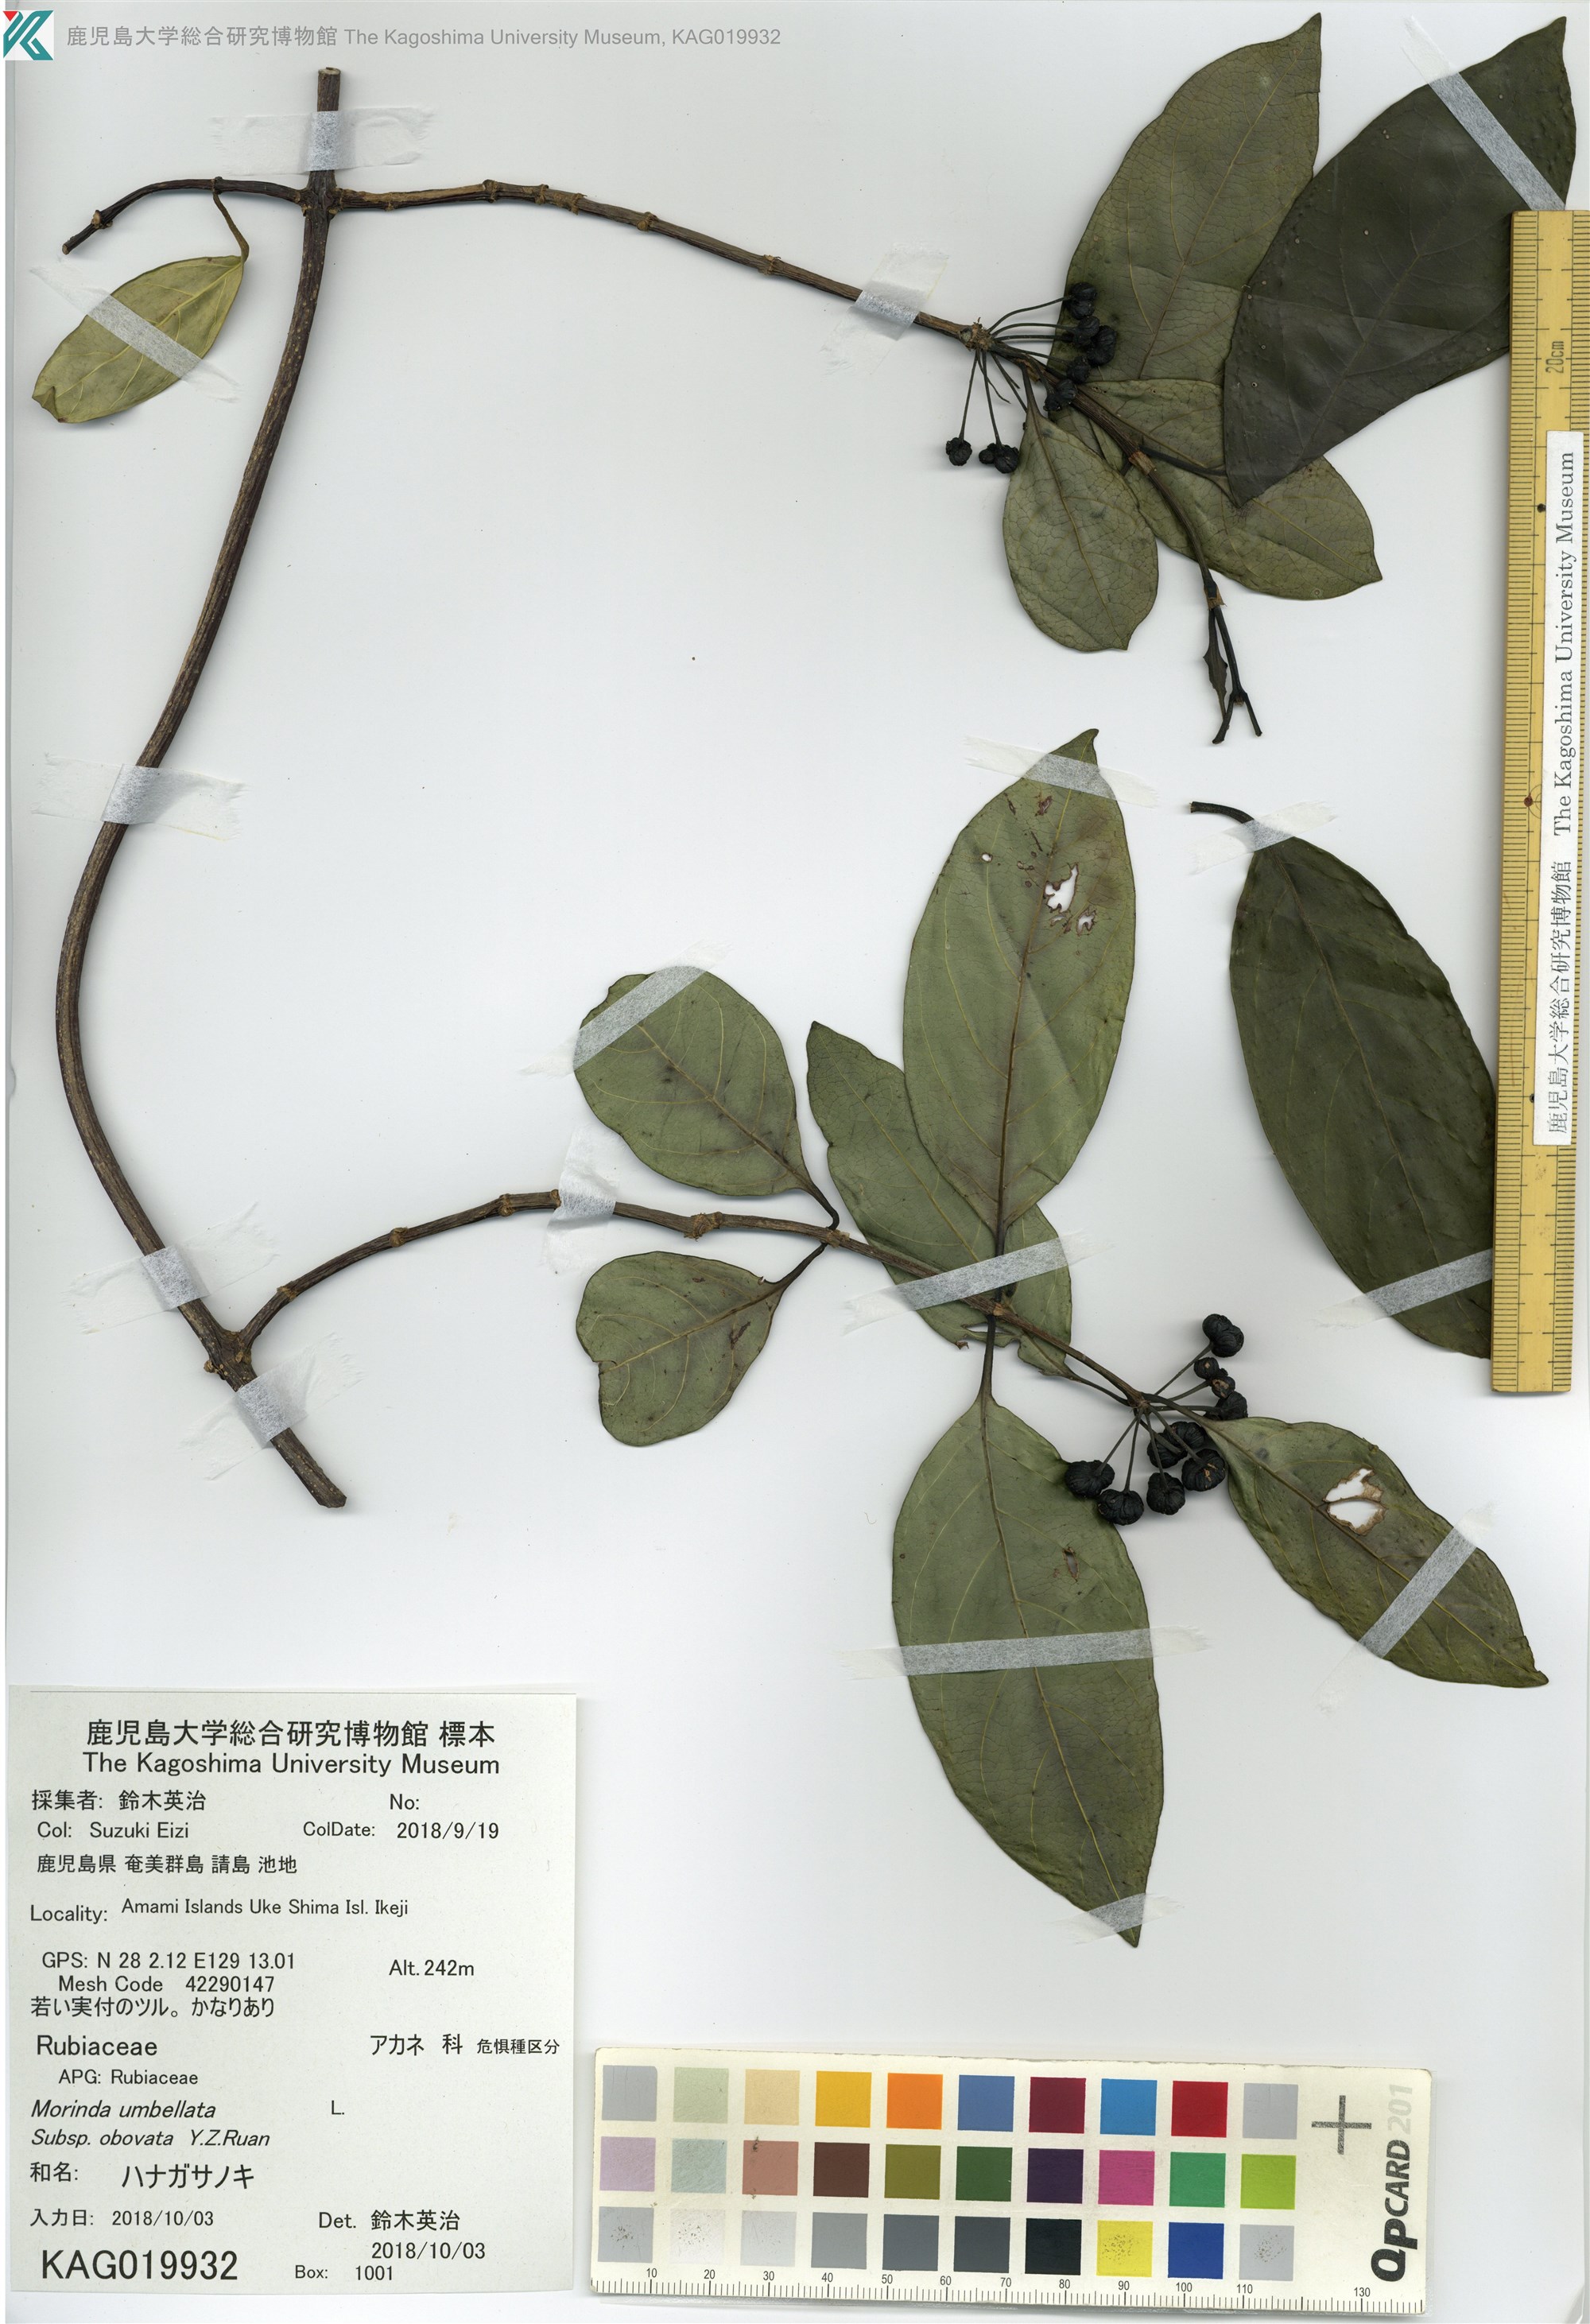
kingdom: Plantae
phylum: Tracheophyta
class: Magnoliopsida
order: Gentianales
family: Rubiaceae
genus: Gynochthodes
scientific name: Gynochthodes umbellata
